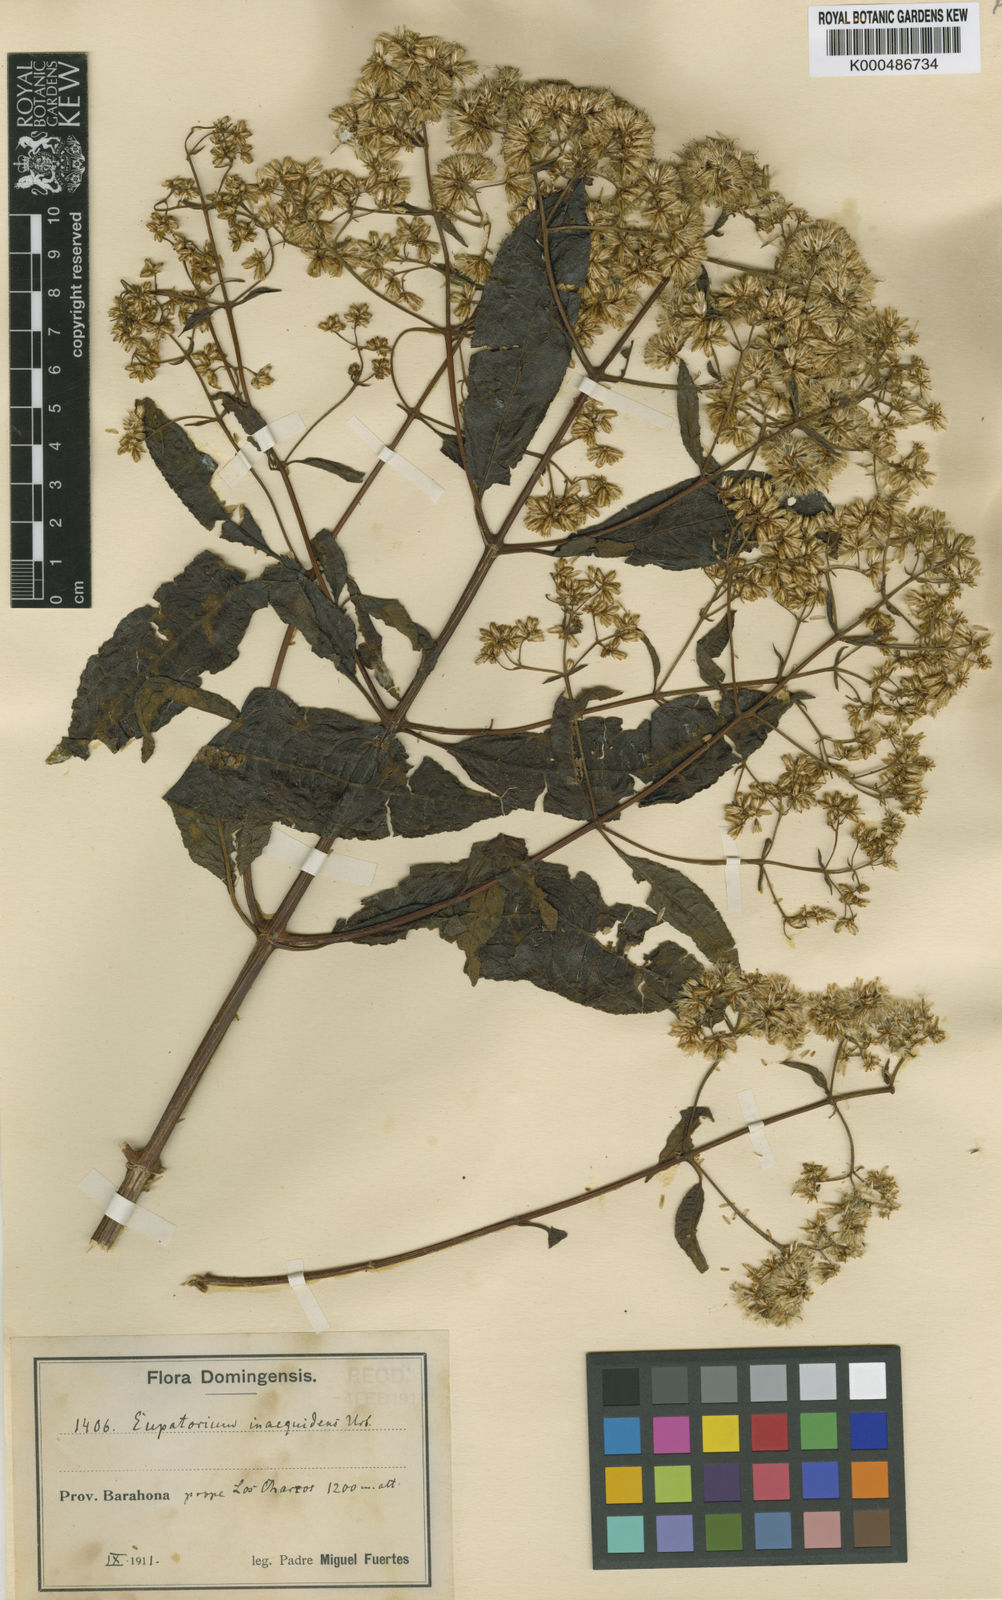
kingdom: Plantae
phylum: Tracheophyta
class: Magnoliopsida
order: Asterales
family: Asteraceae
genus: Critonia
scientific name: Critonia inaequidens
